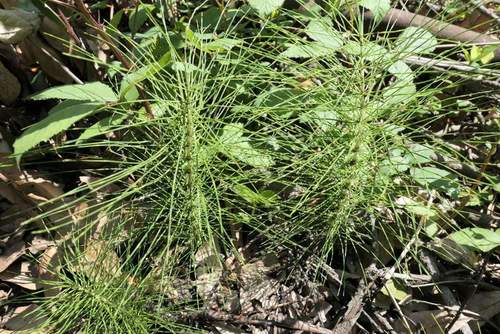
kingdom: Plantae
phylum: Tracheophyta
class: Polypodiopsida
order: Equisetales
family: Equisetaceae
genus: Equisetum
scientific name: Equisetum telmateia
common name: Great horsetail
